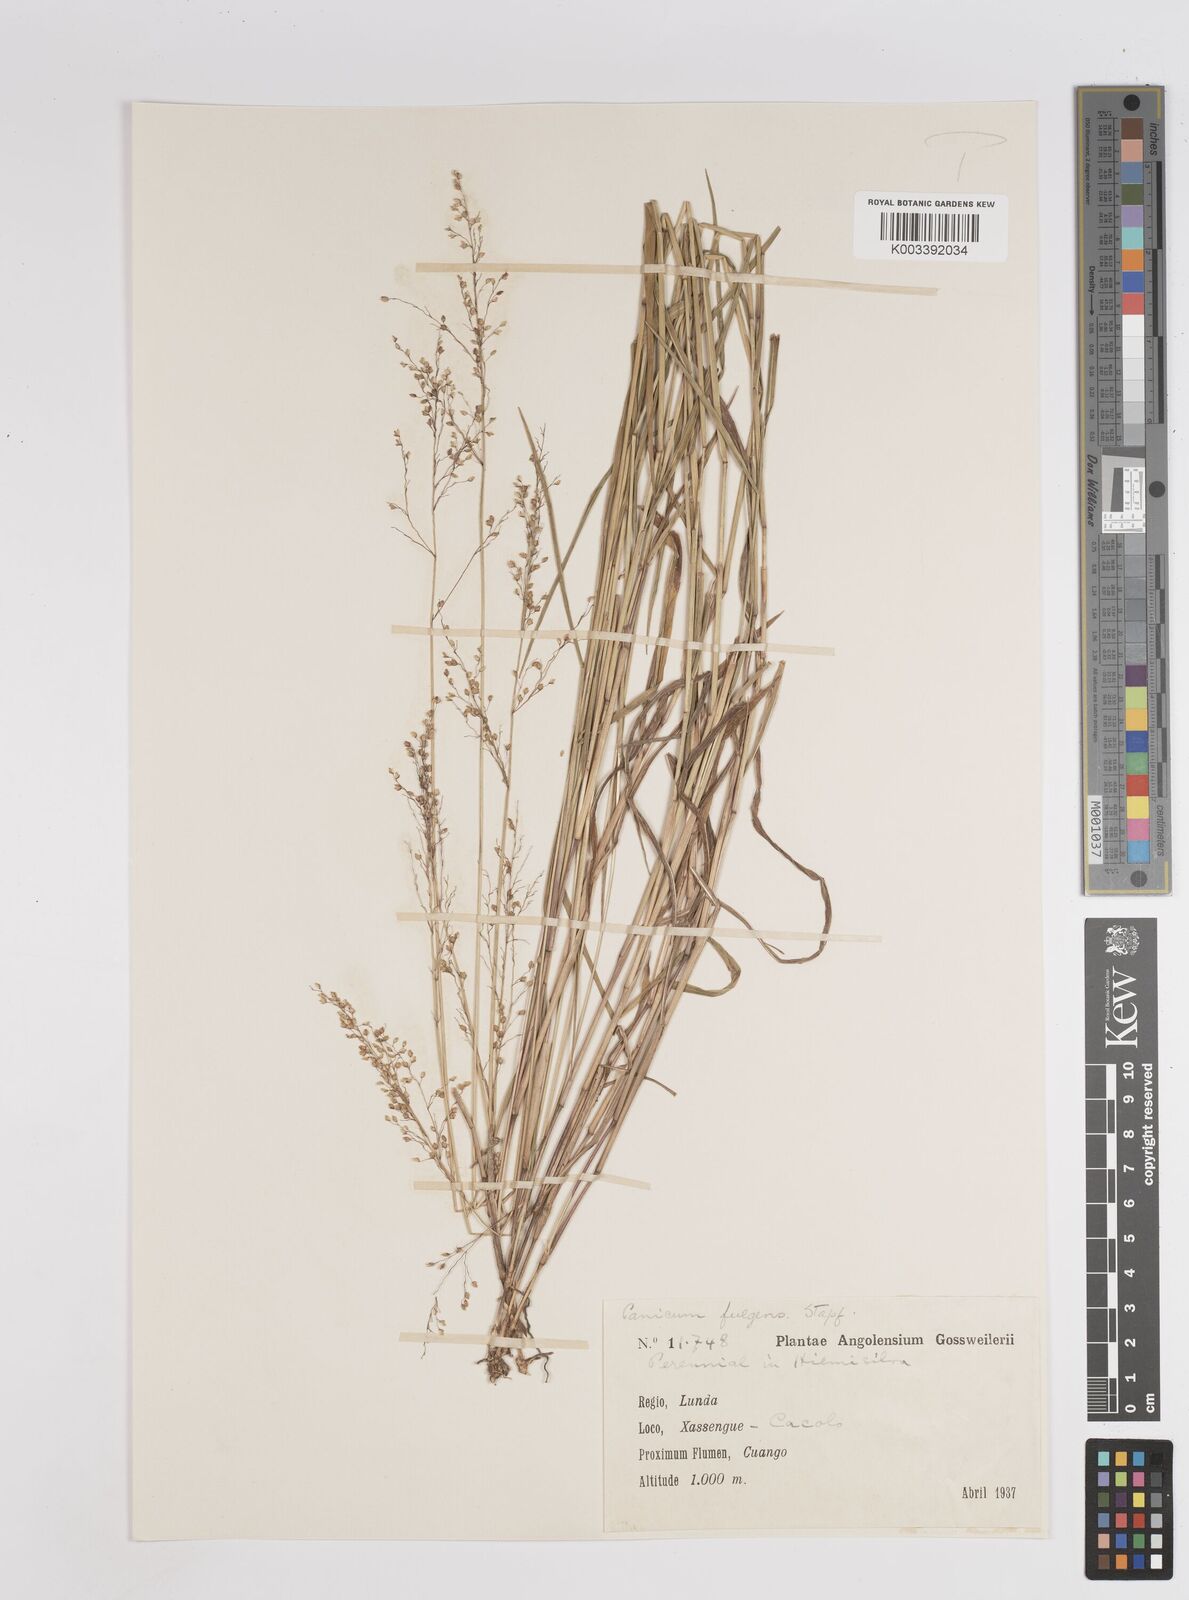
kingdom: Plantae
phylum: Tracheophyta
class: Liliopsida
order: Poales
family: Poaceae
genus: Trichanthecium
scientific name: Trichanthecium nervatum
